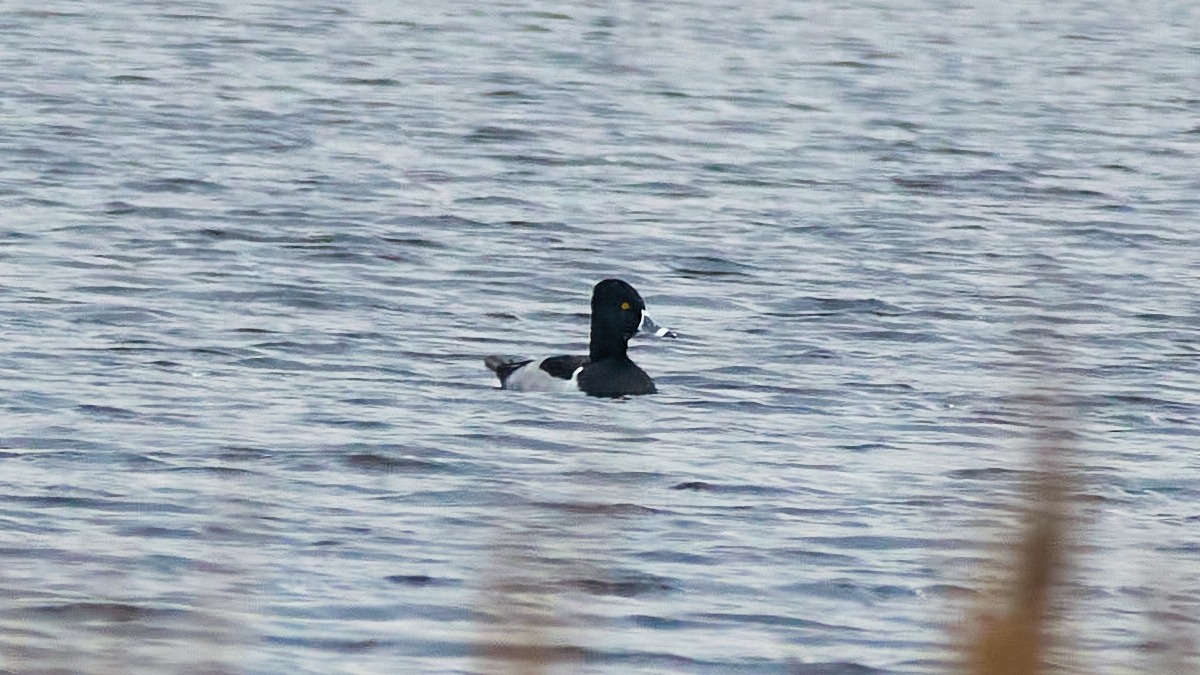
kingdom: Animalia
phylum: Chordata
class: Aves
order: Anseriformes
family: Anatidae
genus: Aythya
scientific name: Aythya collaris
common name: Halsbåndstroldand
